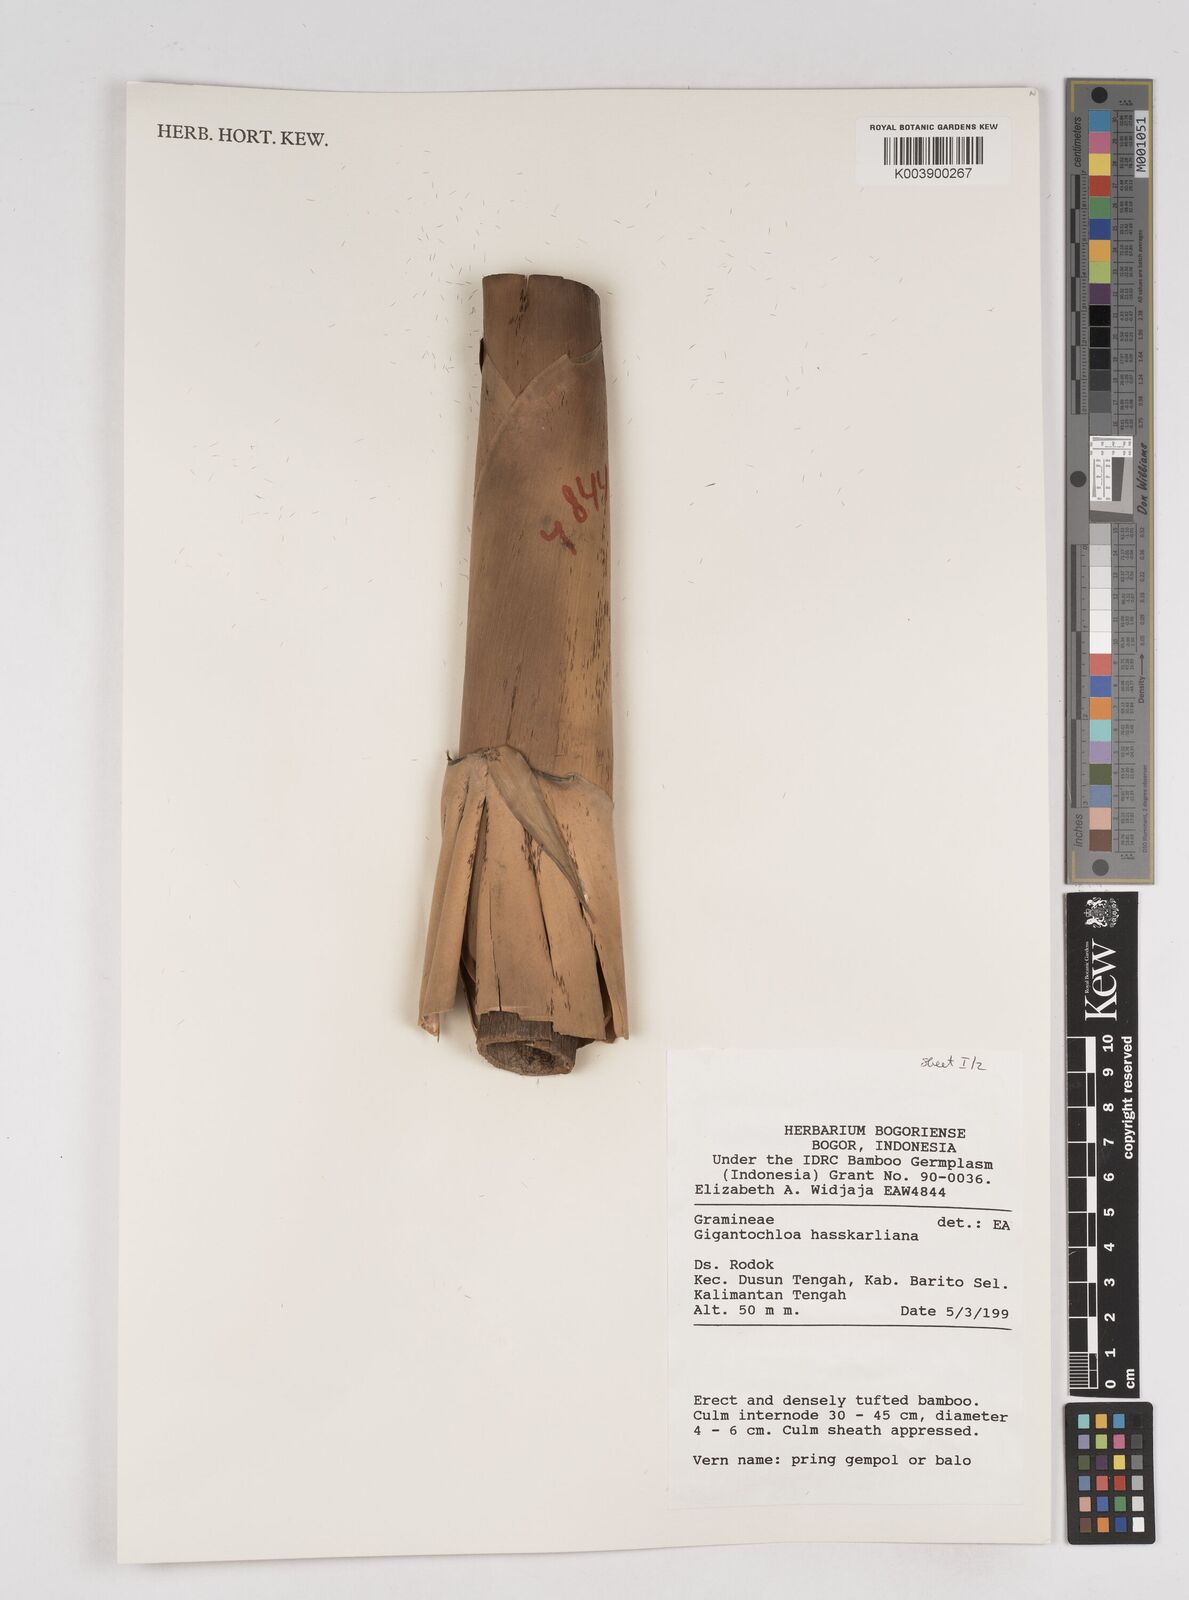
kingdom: Plantae
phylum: Tracheophyta
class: Liliopsida
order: Poales
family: Poaceae
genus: Gigantochloa
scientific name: Gigantochloa hasskarliana
